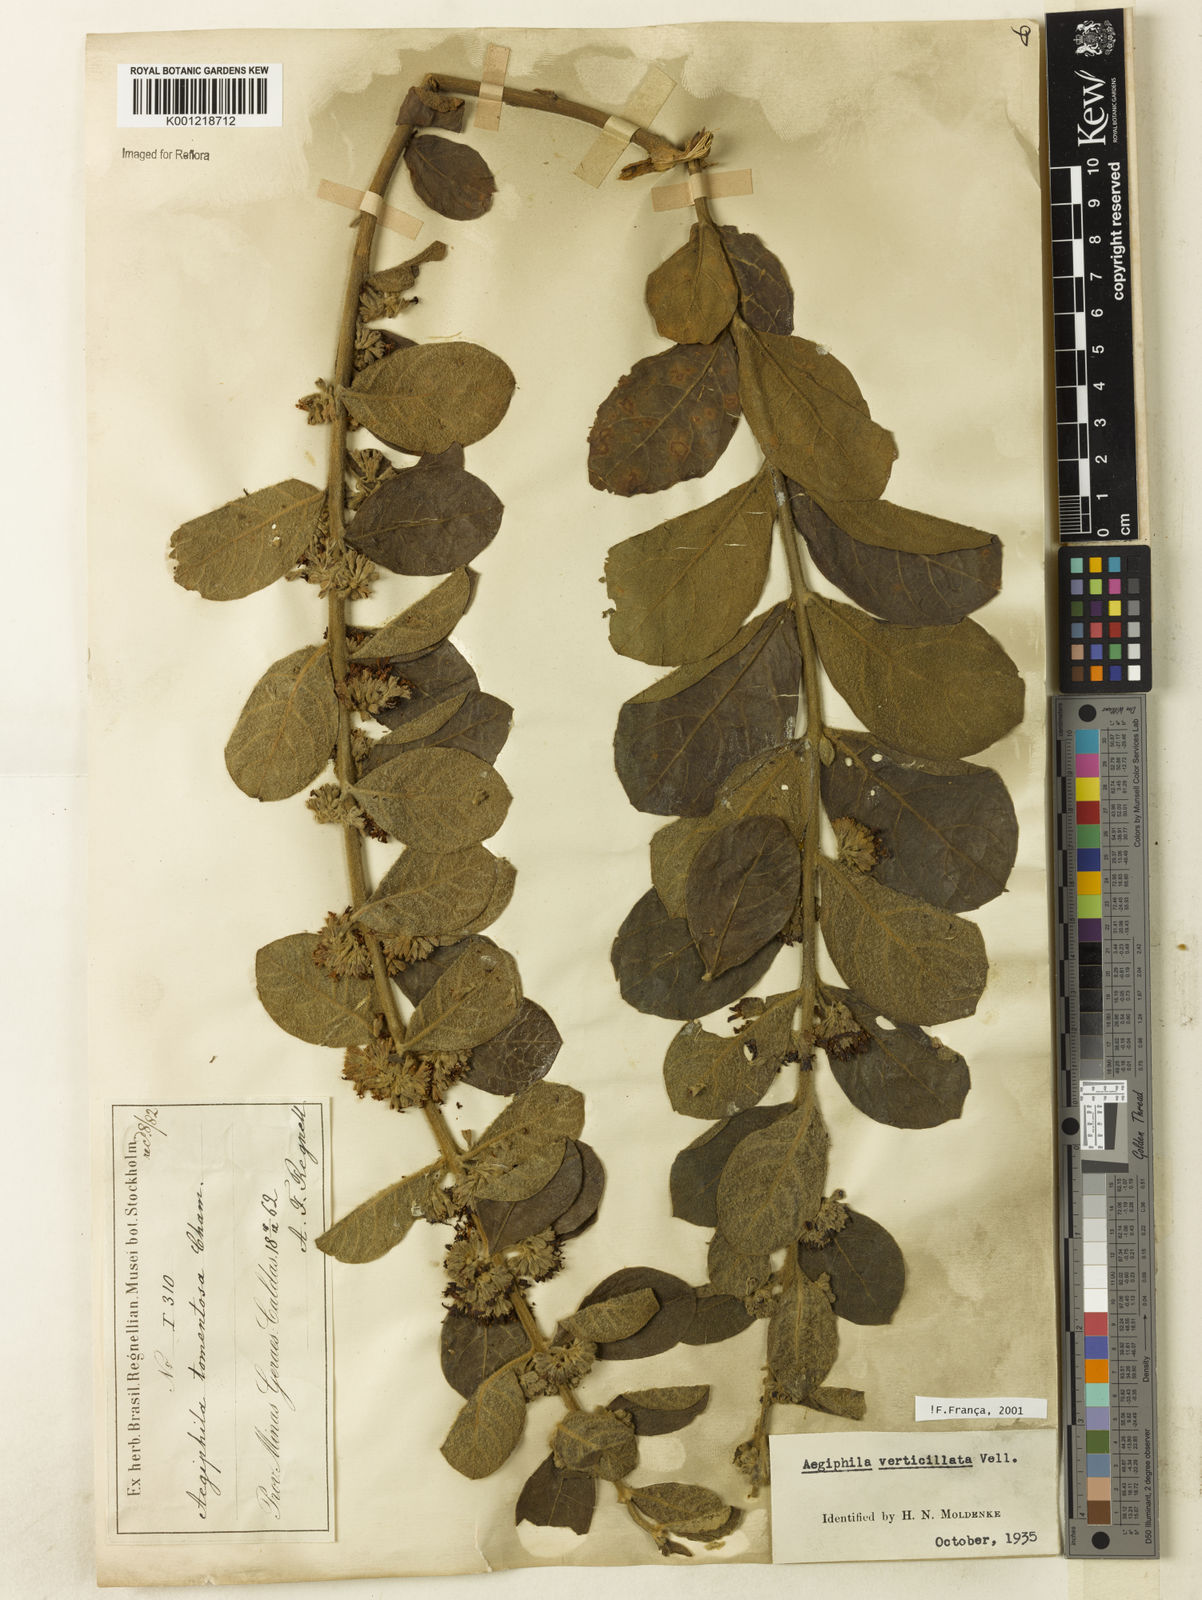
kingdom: Plantae
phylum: Tracheophyta
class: Magnoliopsida
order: Lamiales
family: Lamiaceae
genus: Aegiphila
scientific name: Aegiphila verticillata
